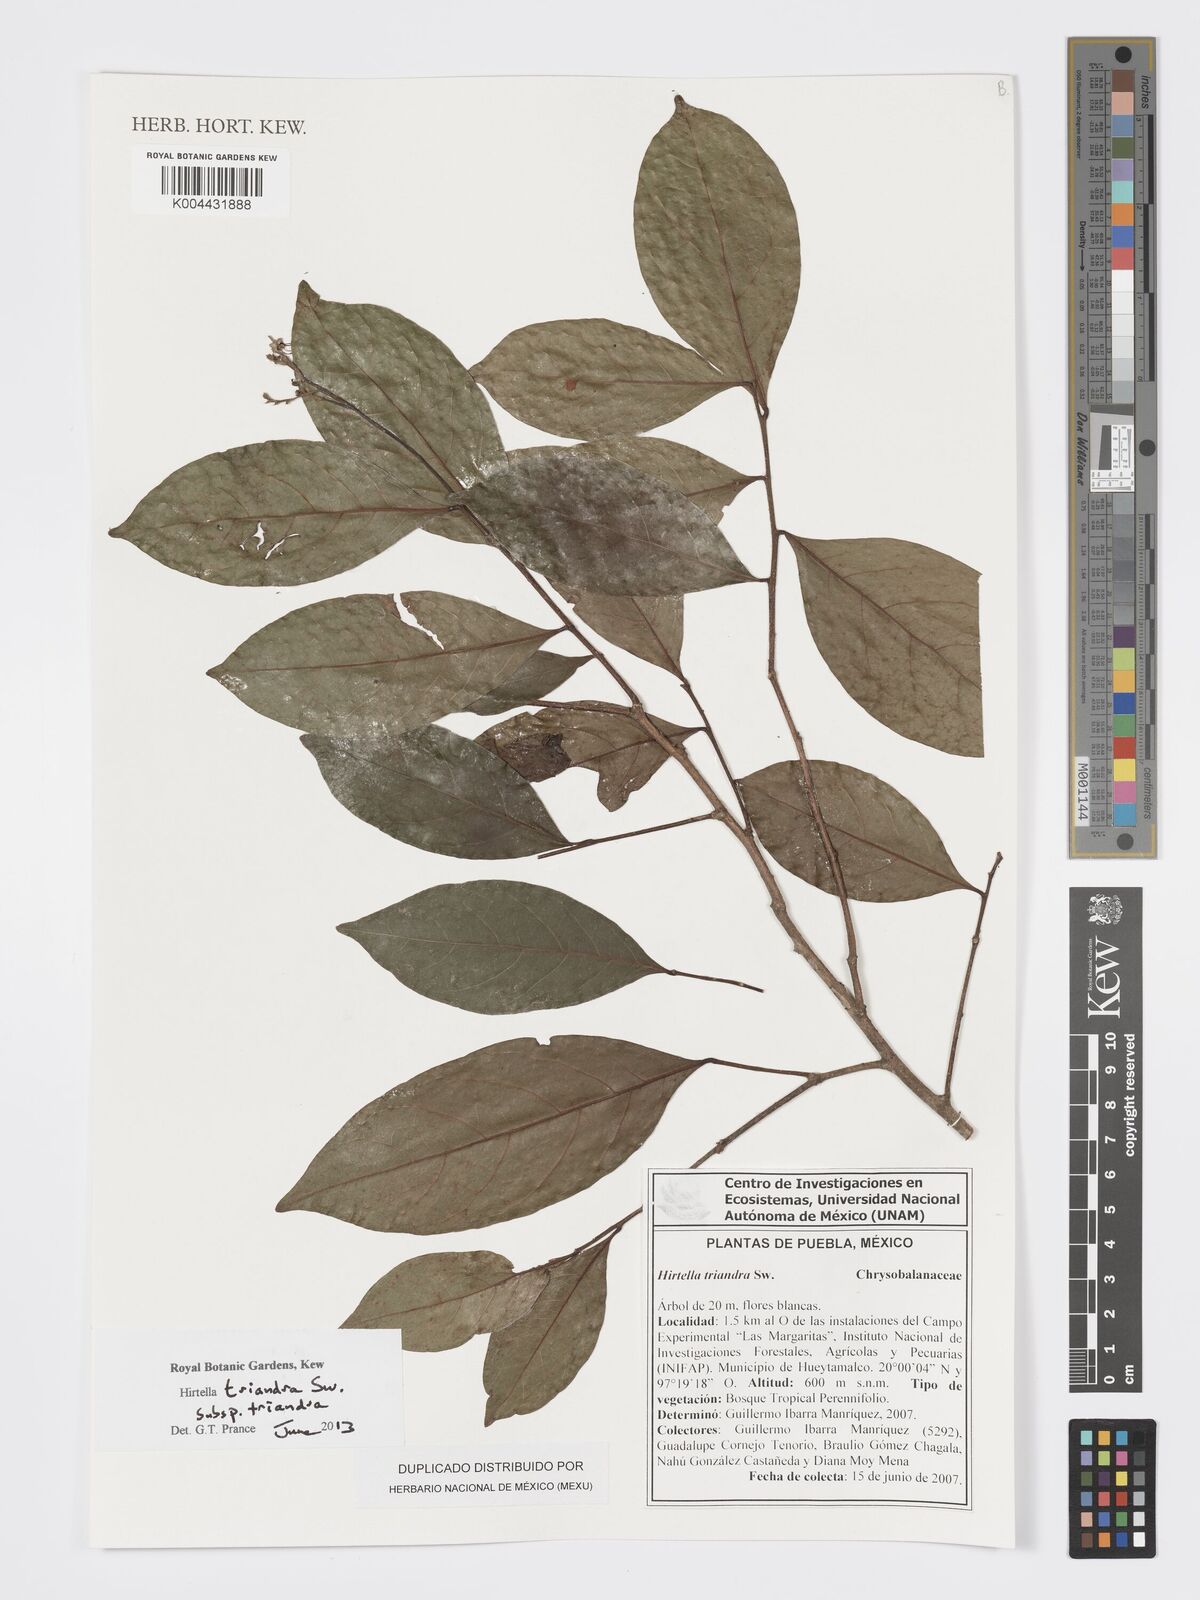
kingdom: Plantae
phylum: Tracheophyta
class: Magnoliopsida
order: Malpighiales
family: Chrysobalanaceae
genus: Hirtella
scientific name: Hirtella triandra
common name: Hairy plum
